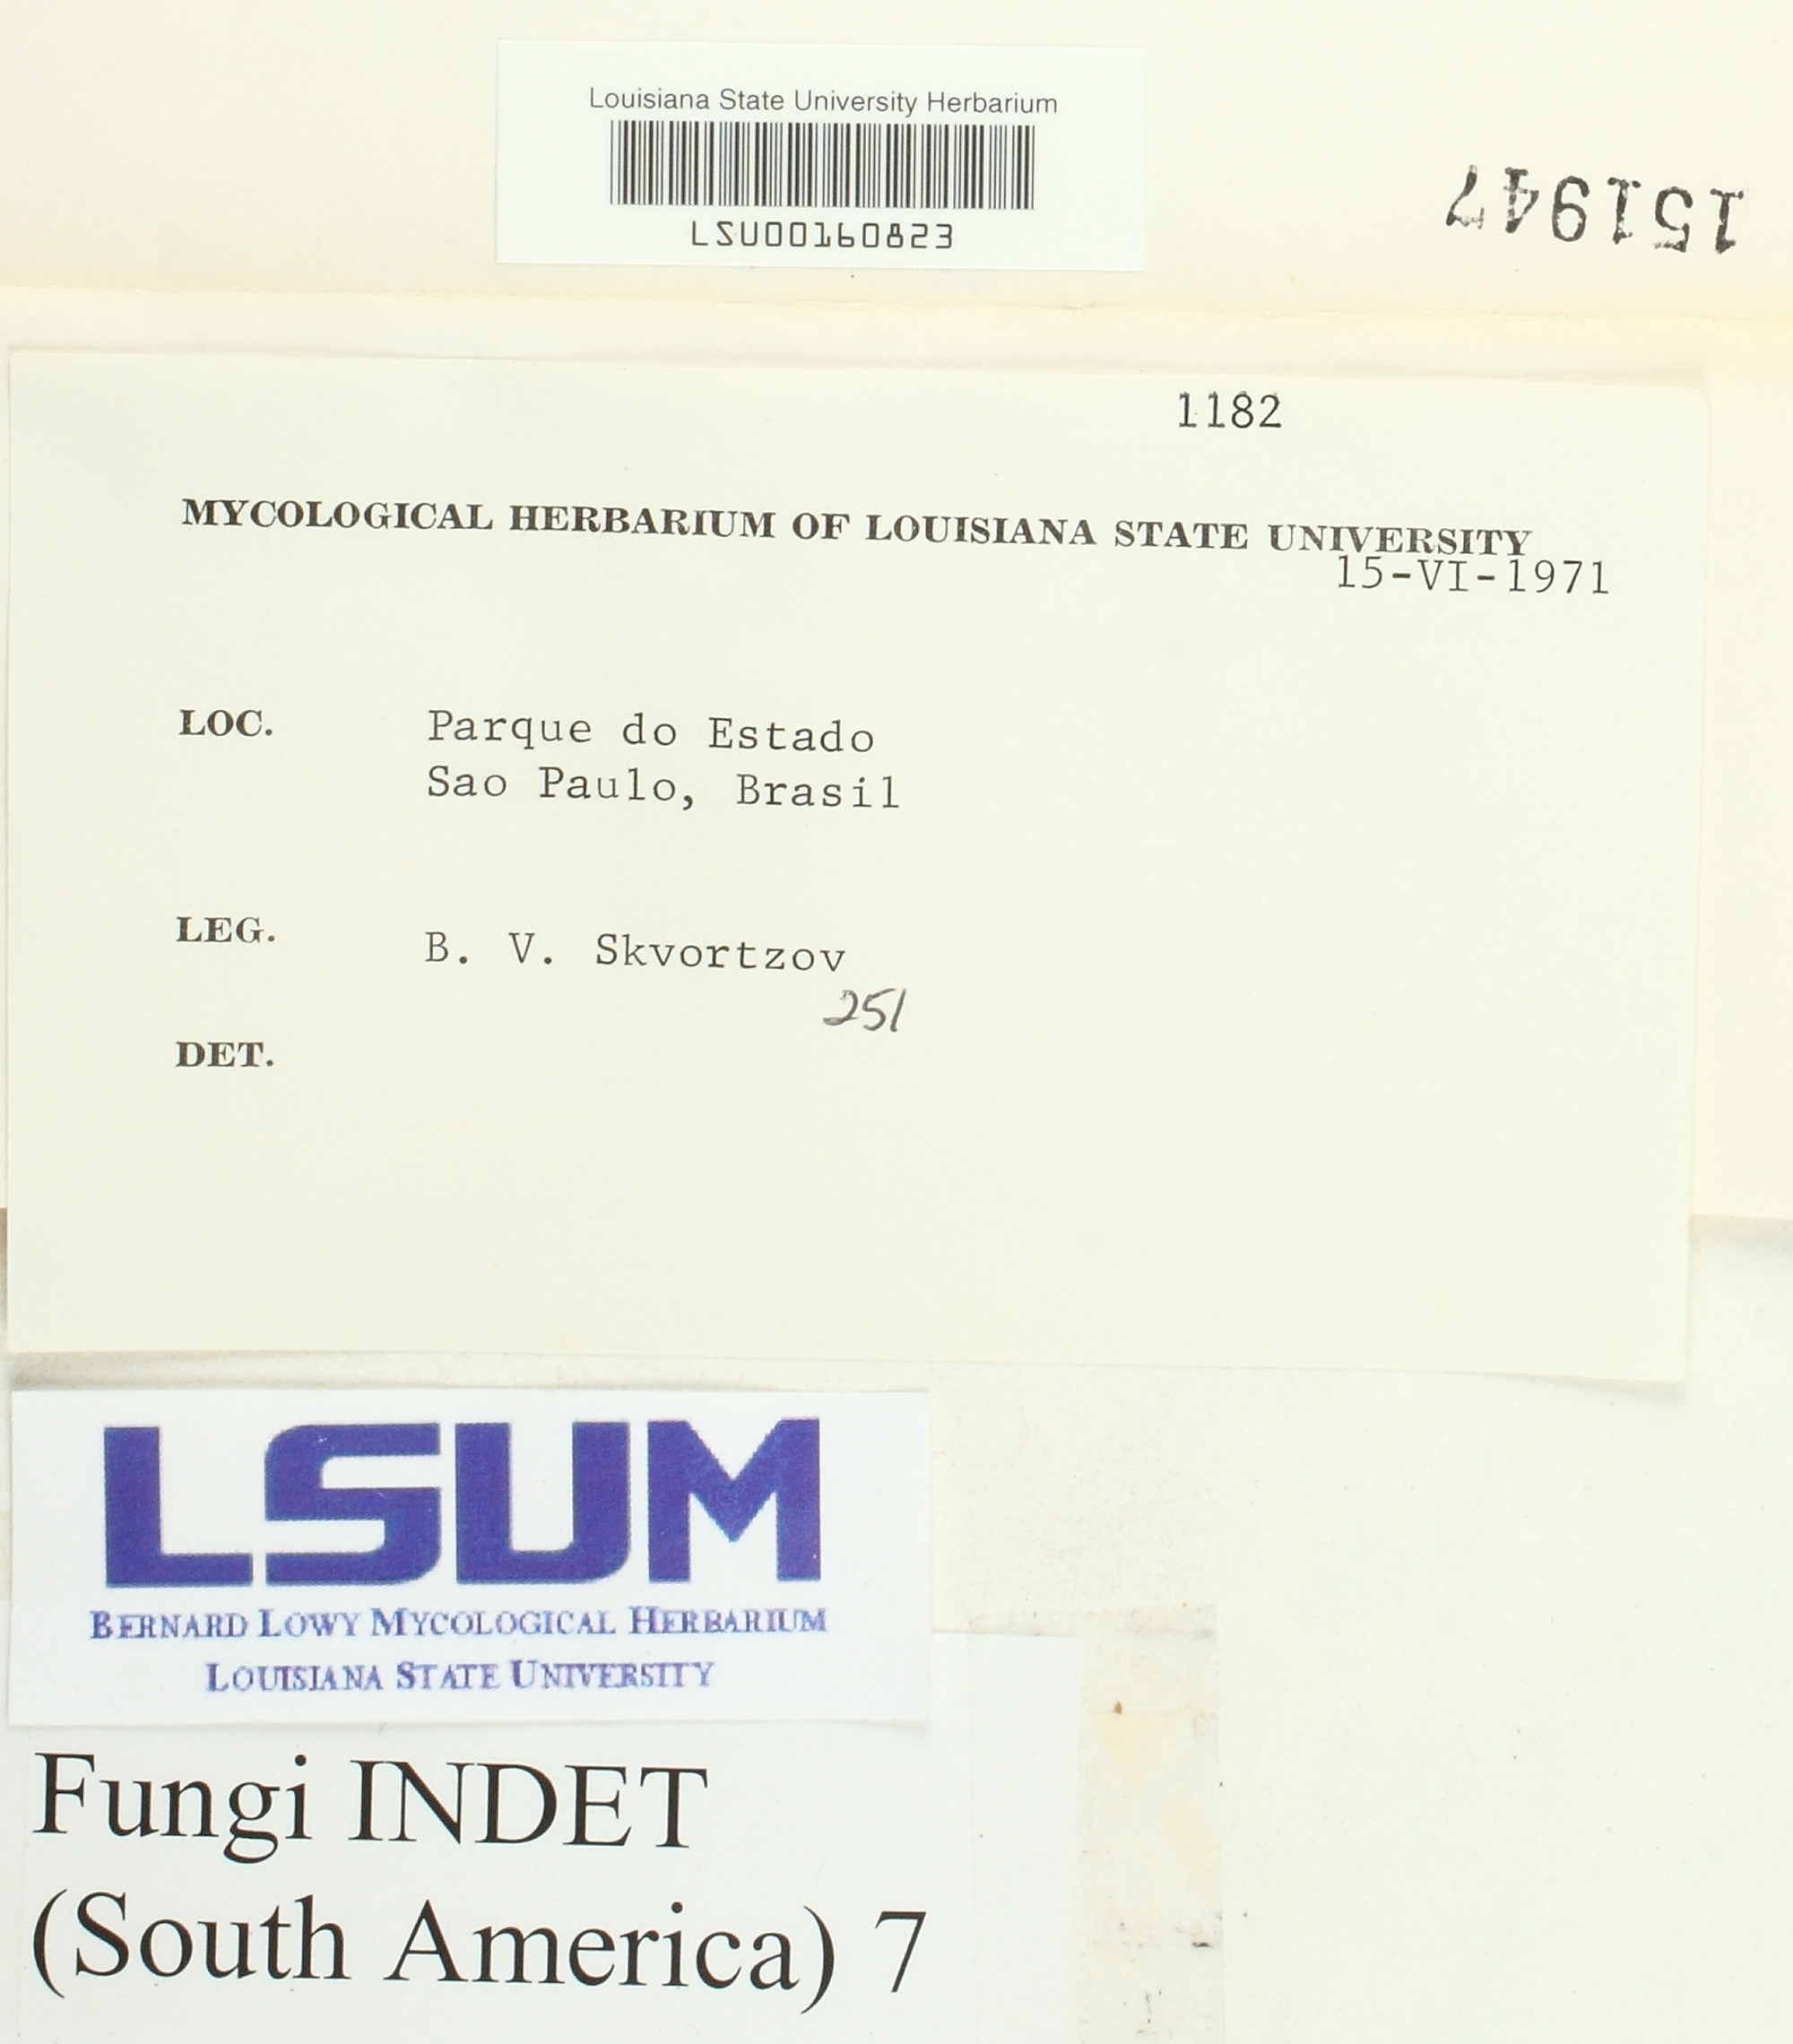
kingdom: Fungi
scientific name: Fungi
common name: Fungi
